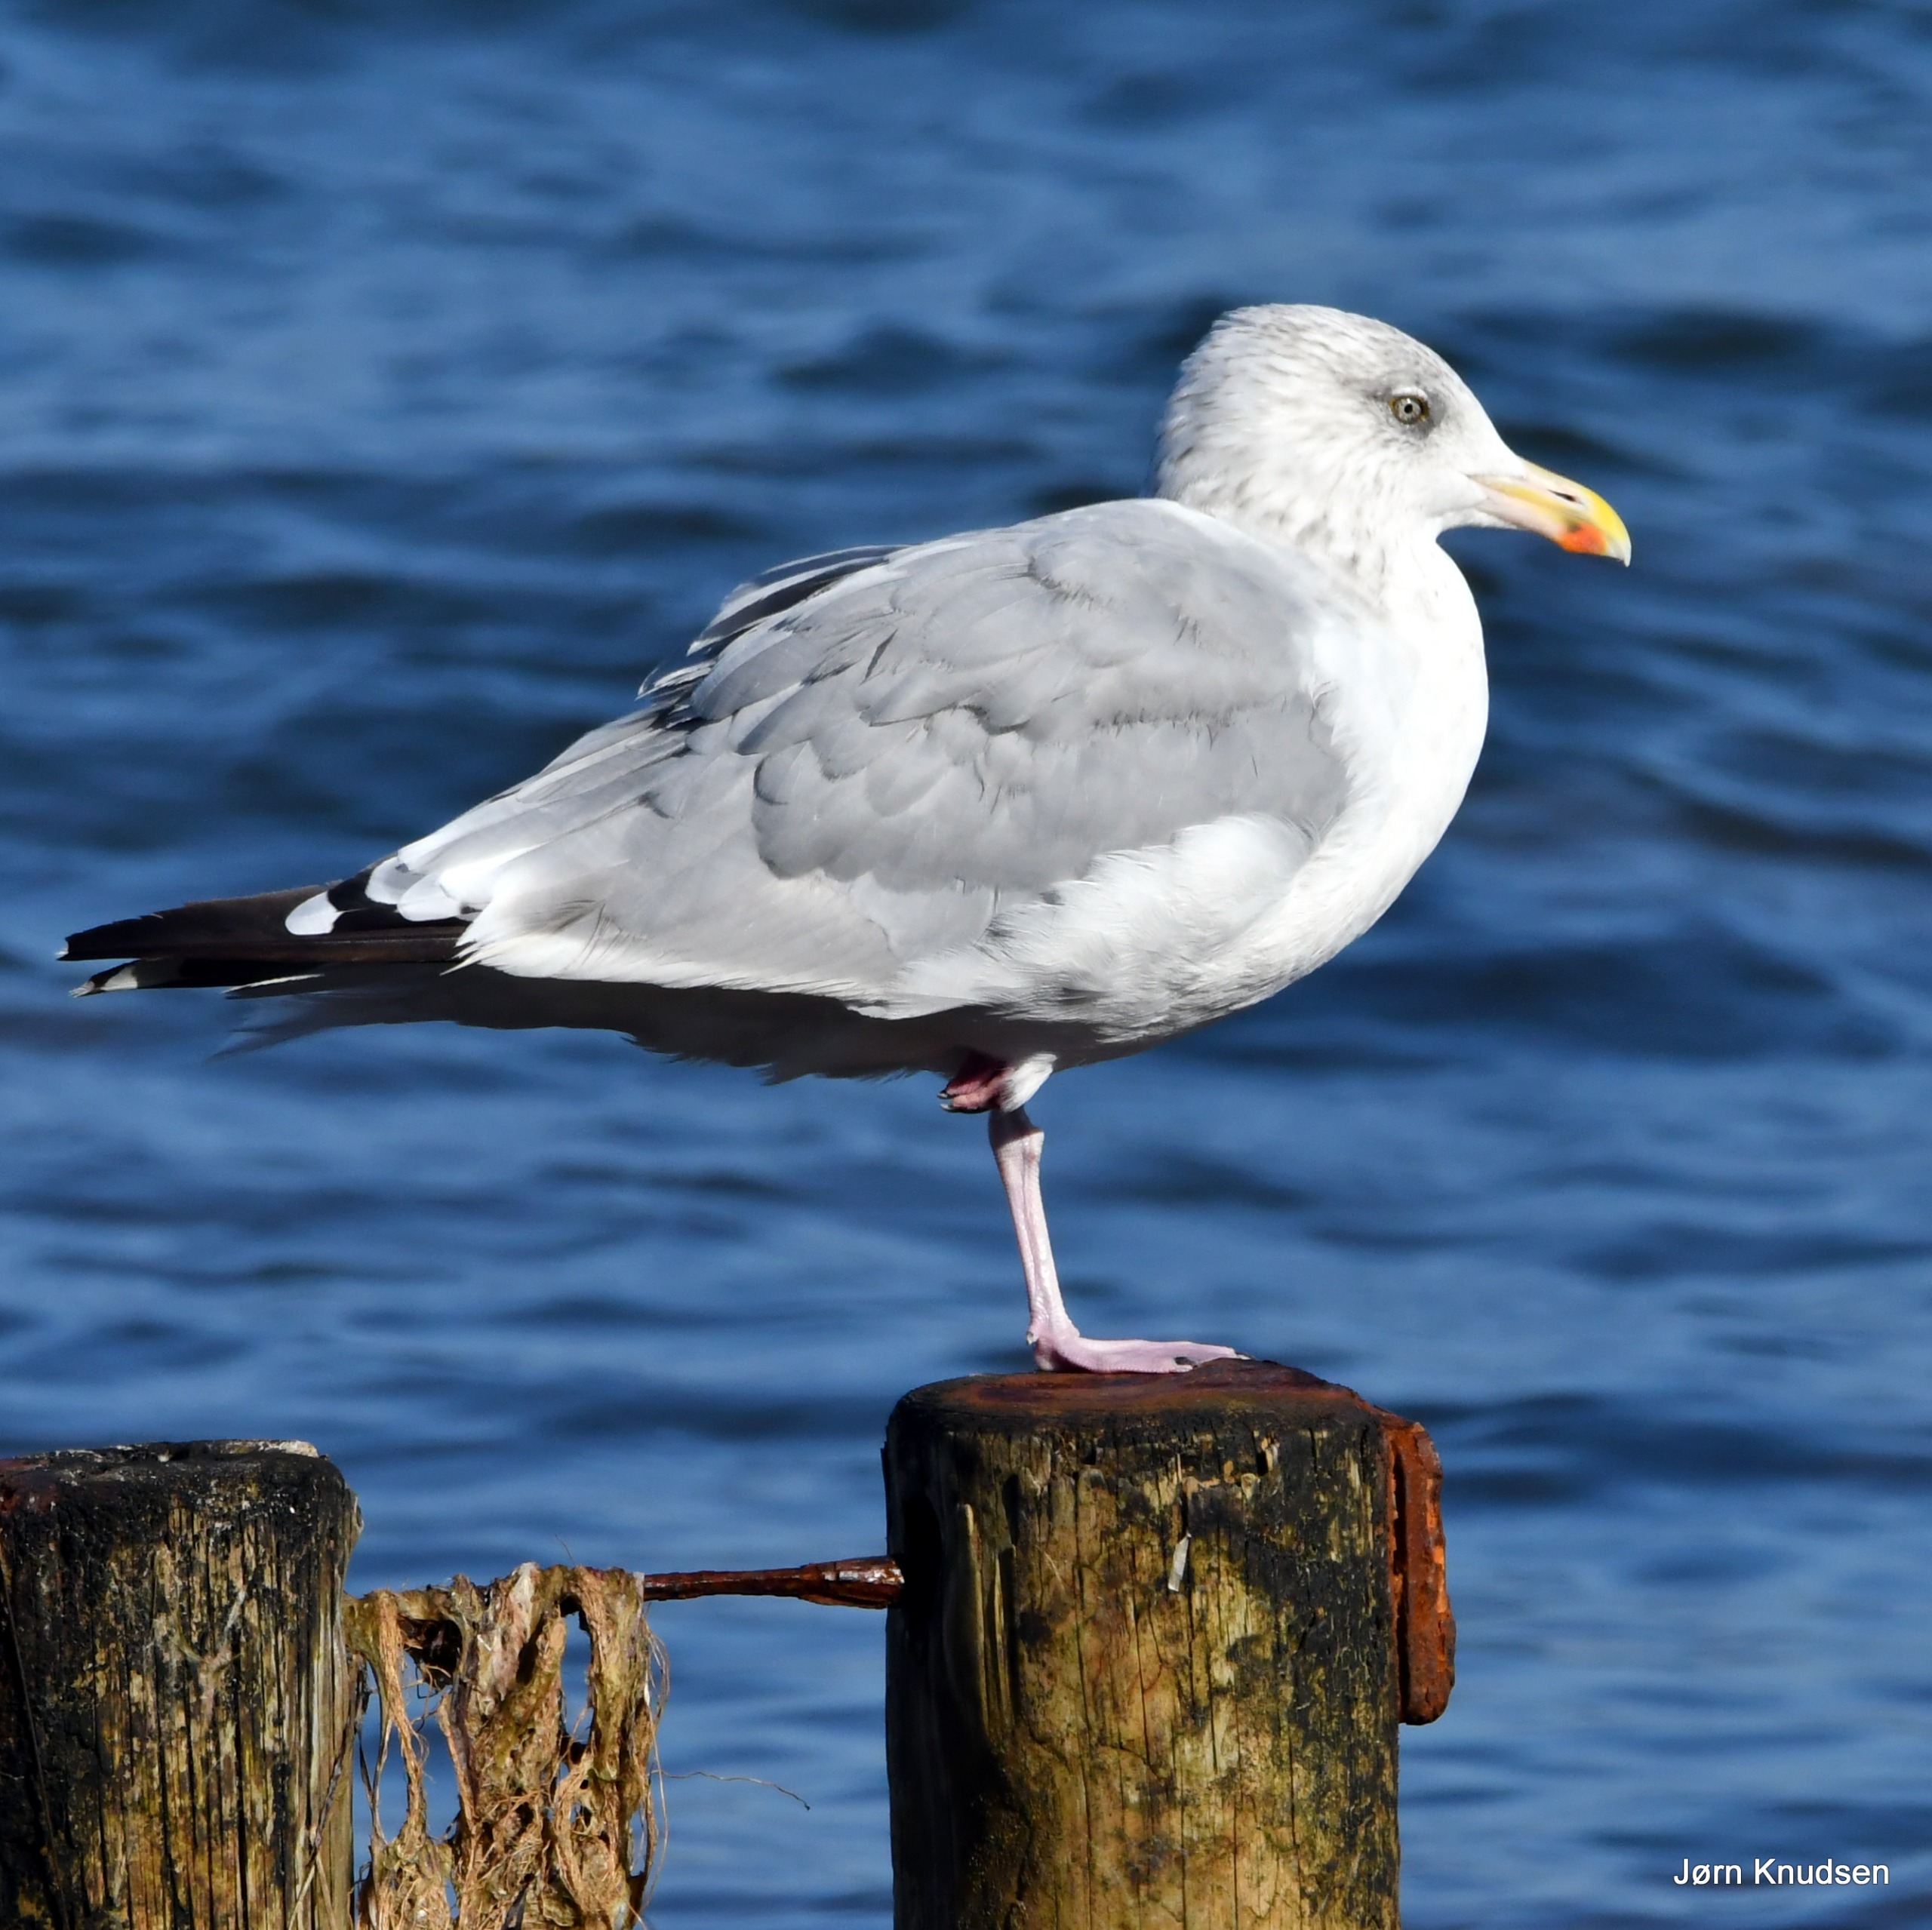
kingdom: Animalia
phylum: Chordata
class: Aves
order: Charadriiformes
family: Laridae
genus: Larus
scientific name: Larus argentatus
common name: Sølvmåge
